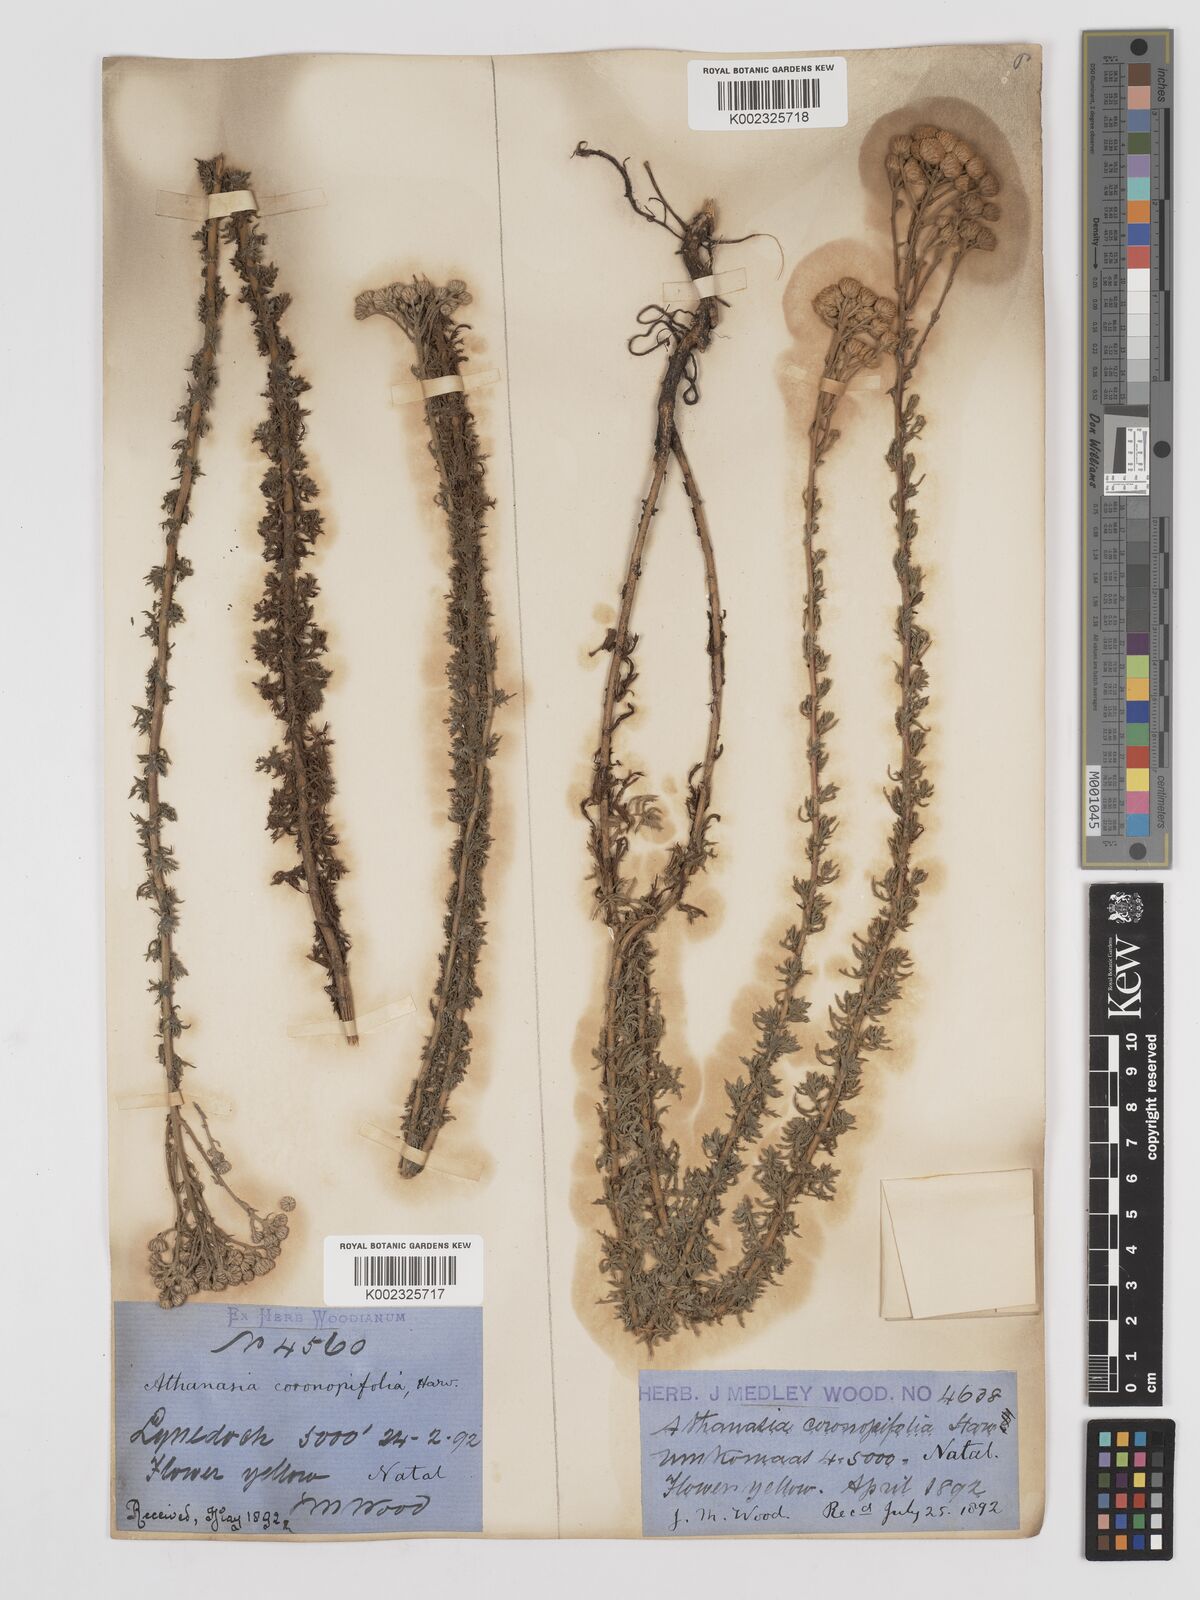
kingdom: Plantae
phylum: Tracheophyta
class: Magnoliopsida
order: Asterales
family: Asteraceae
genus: Inulanthera
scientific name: Inulanthera coronopifolia
